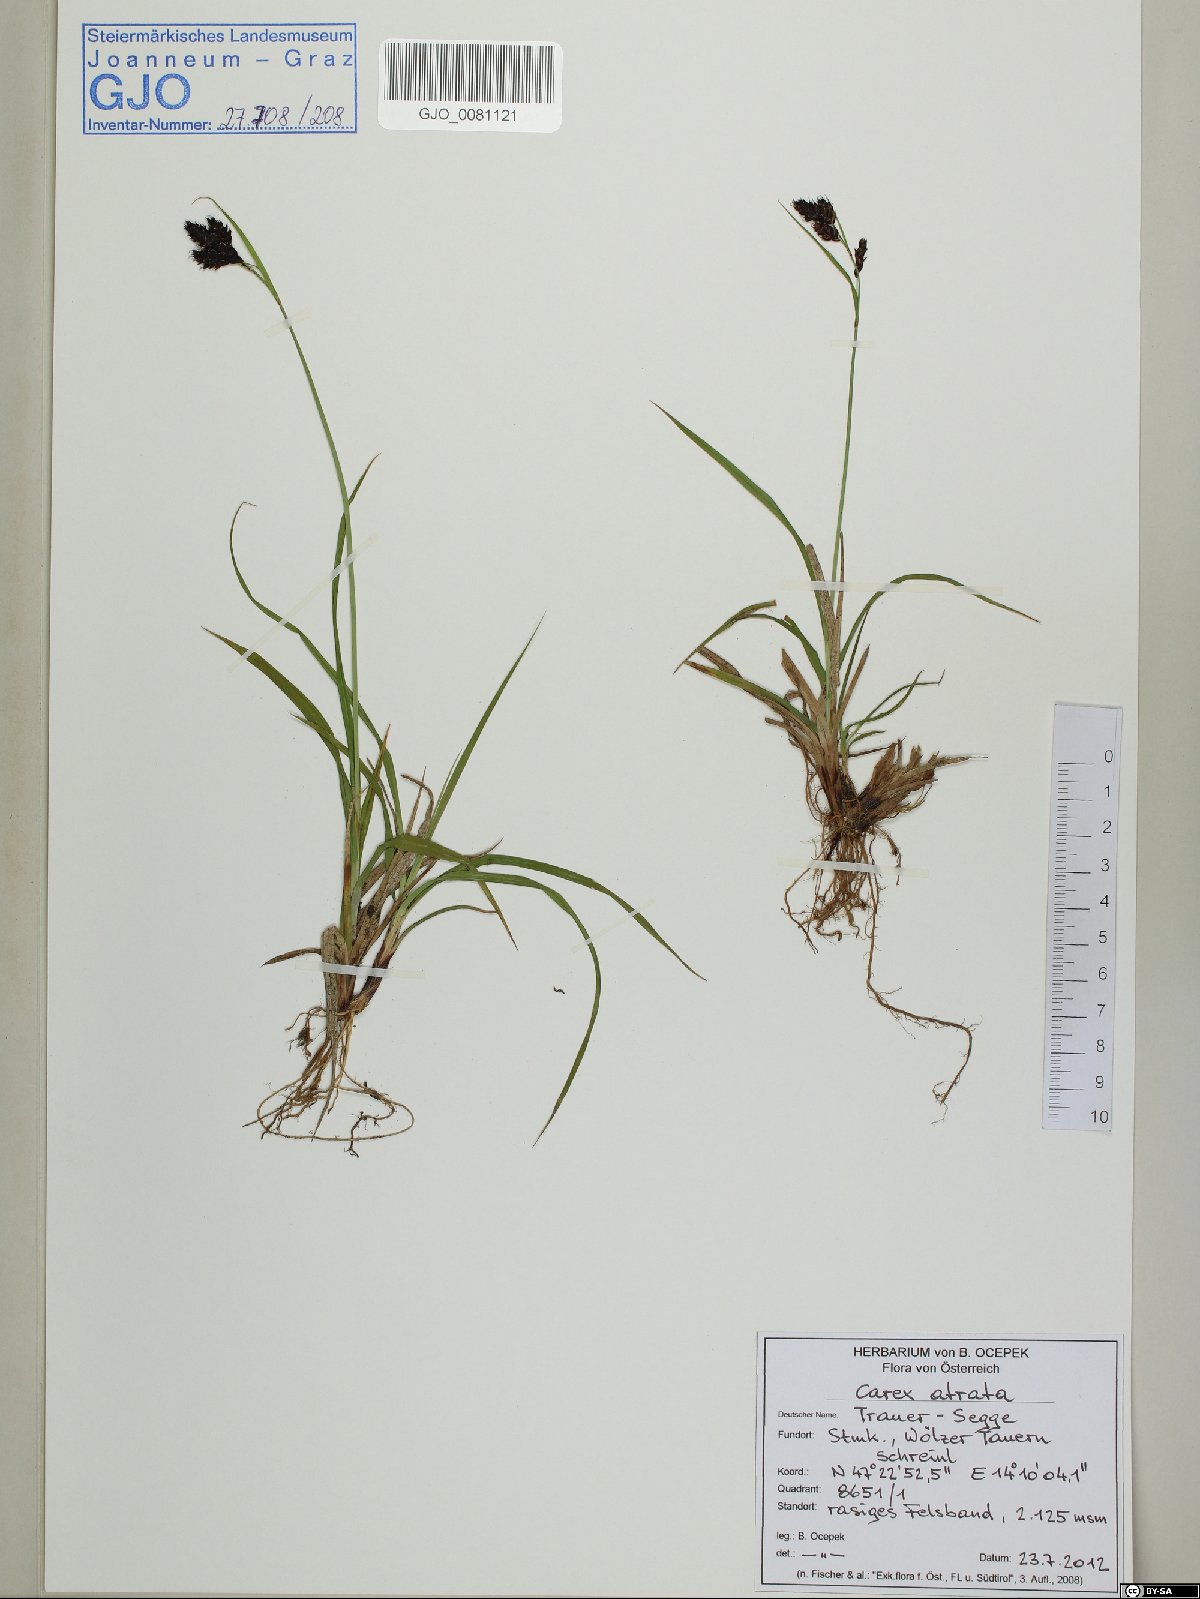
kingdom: Plantae
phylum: Tracheophyta
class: Liliopsida
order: Poales
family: Cyperaceae
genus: Carex
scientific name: Carex atrata
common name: Black alpine sedge
